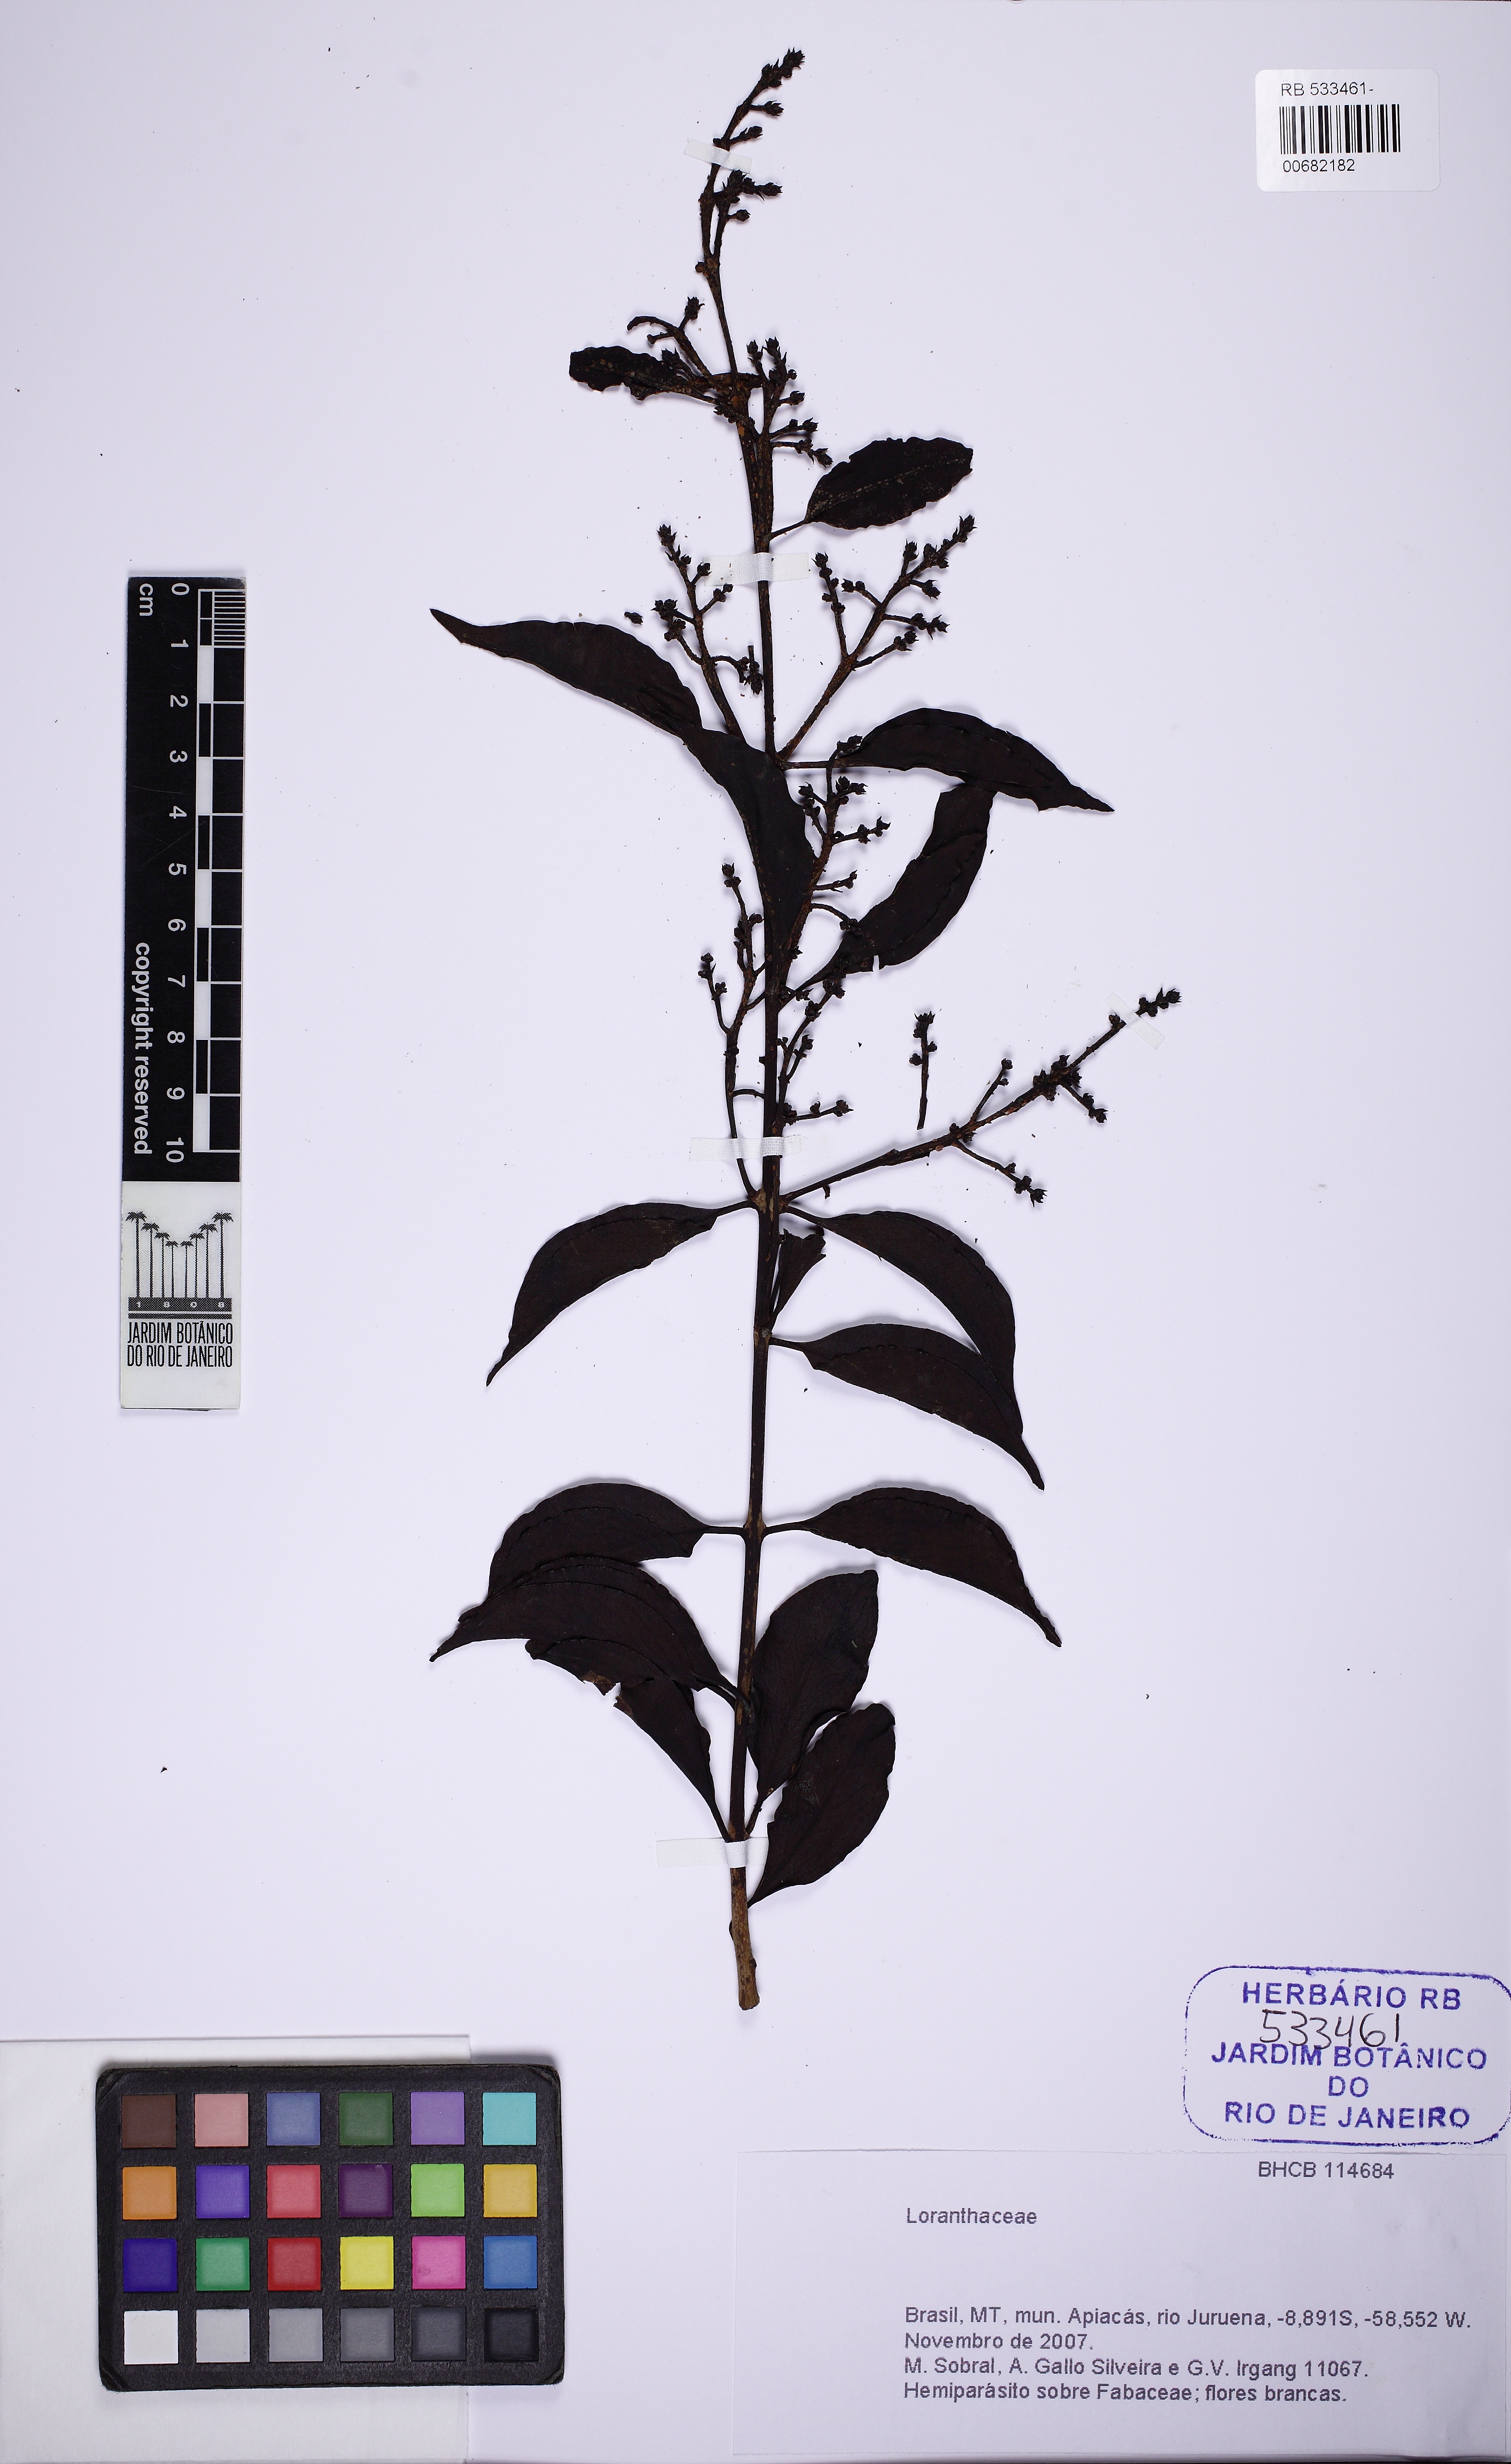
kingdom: Plantae
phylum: Tracheophyta
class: Magnoliopsida
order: Santalales
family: Loranthaceae
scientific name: Loranthaceae
